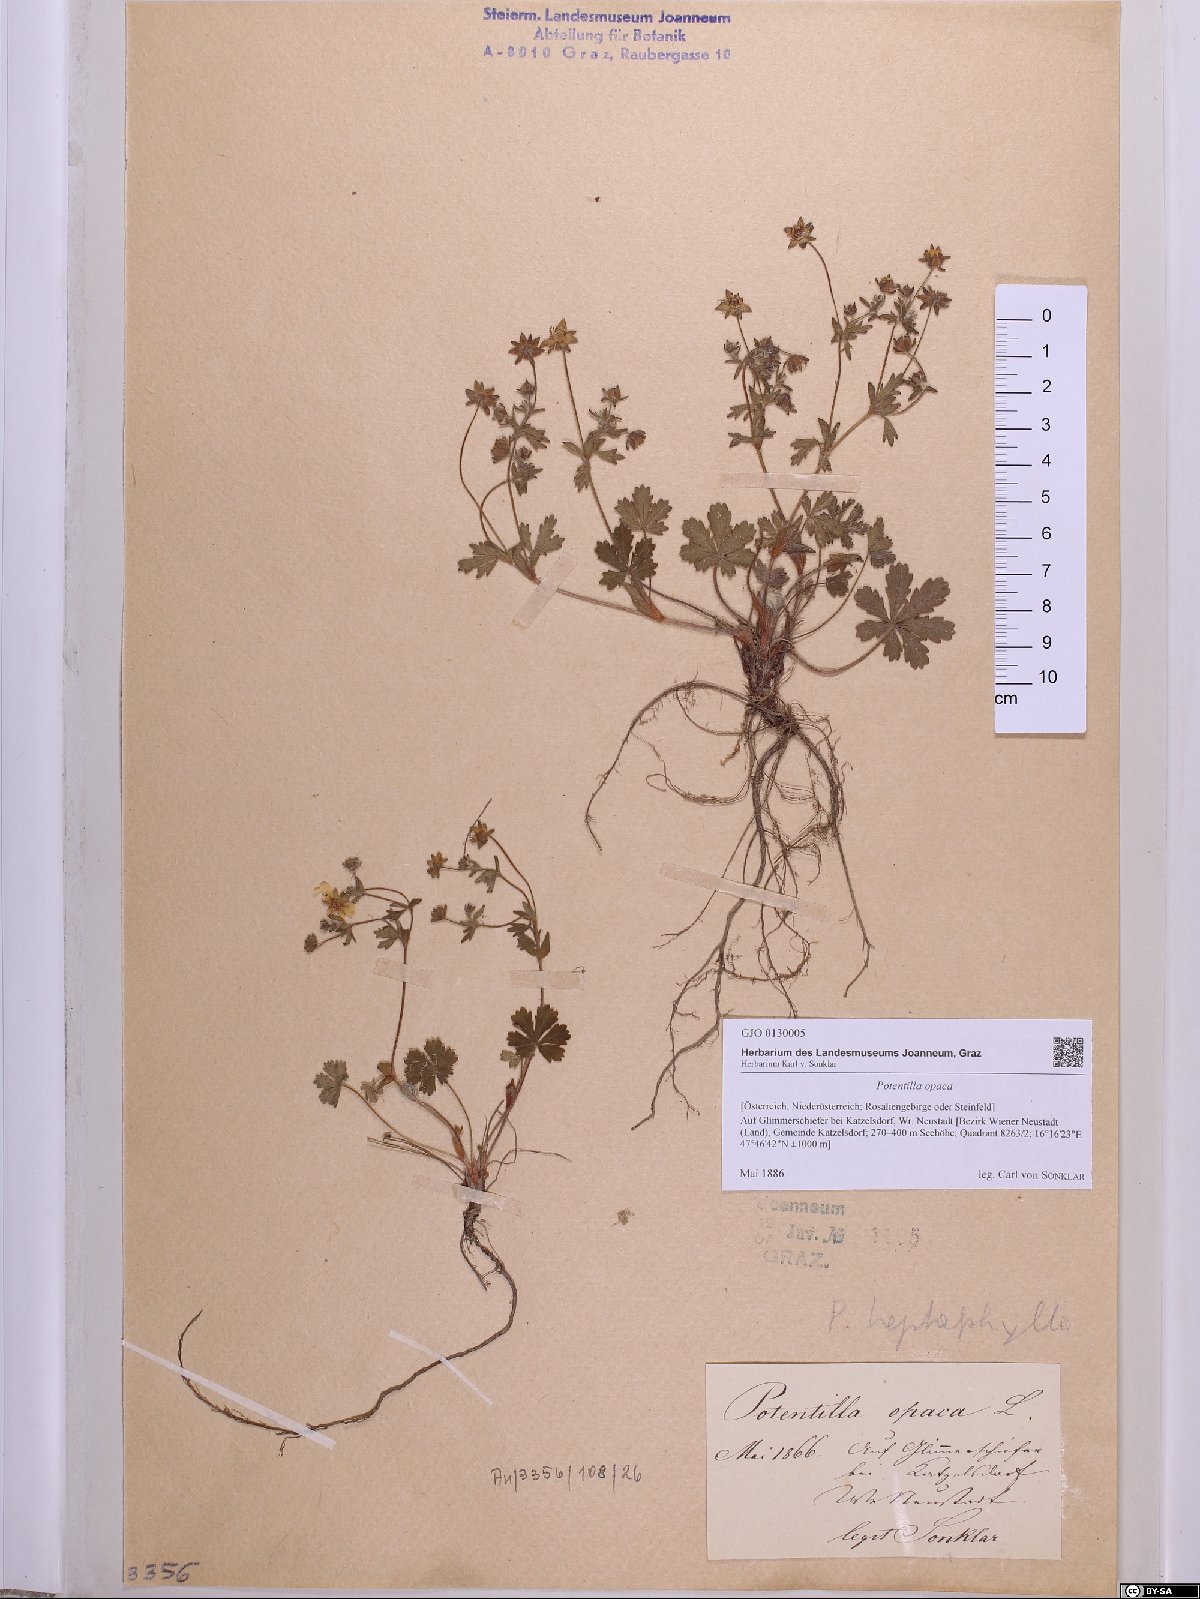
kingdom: Plantae
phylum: Tracheophyta
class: Magnoliopsida
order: Rosales
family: Rosaceae
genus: Potentilla
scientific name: Potentilla
